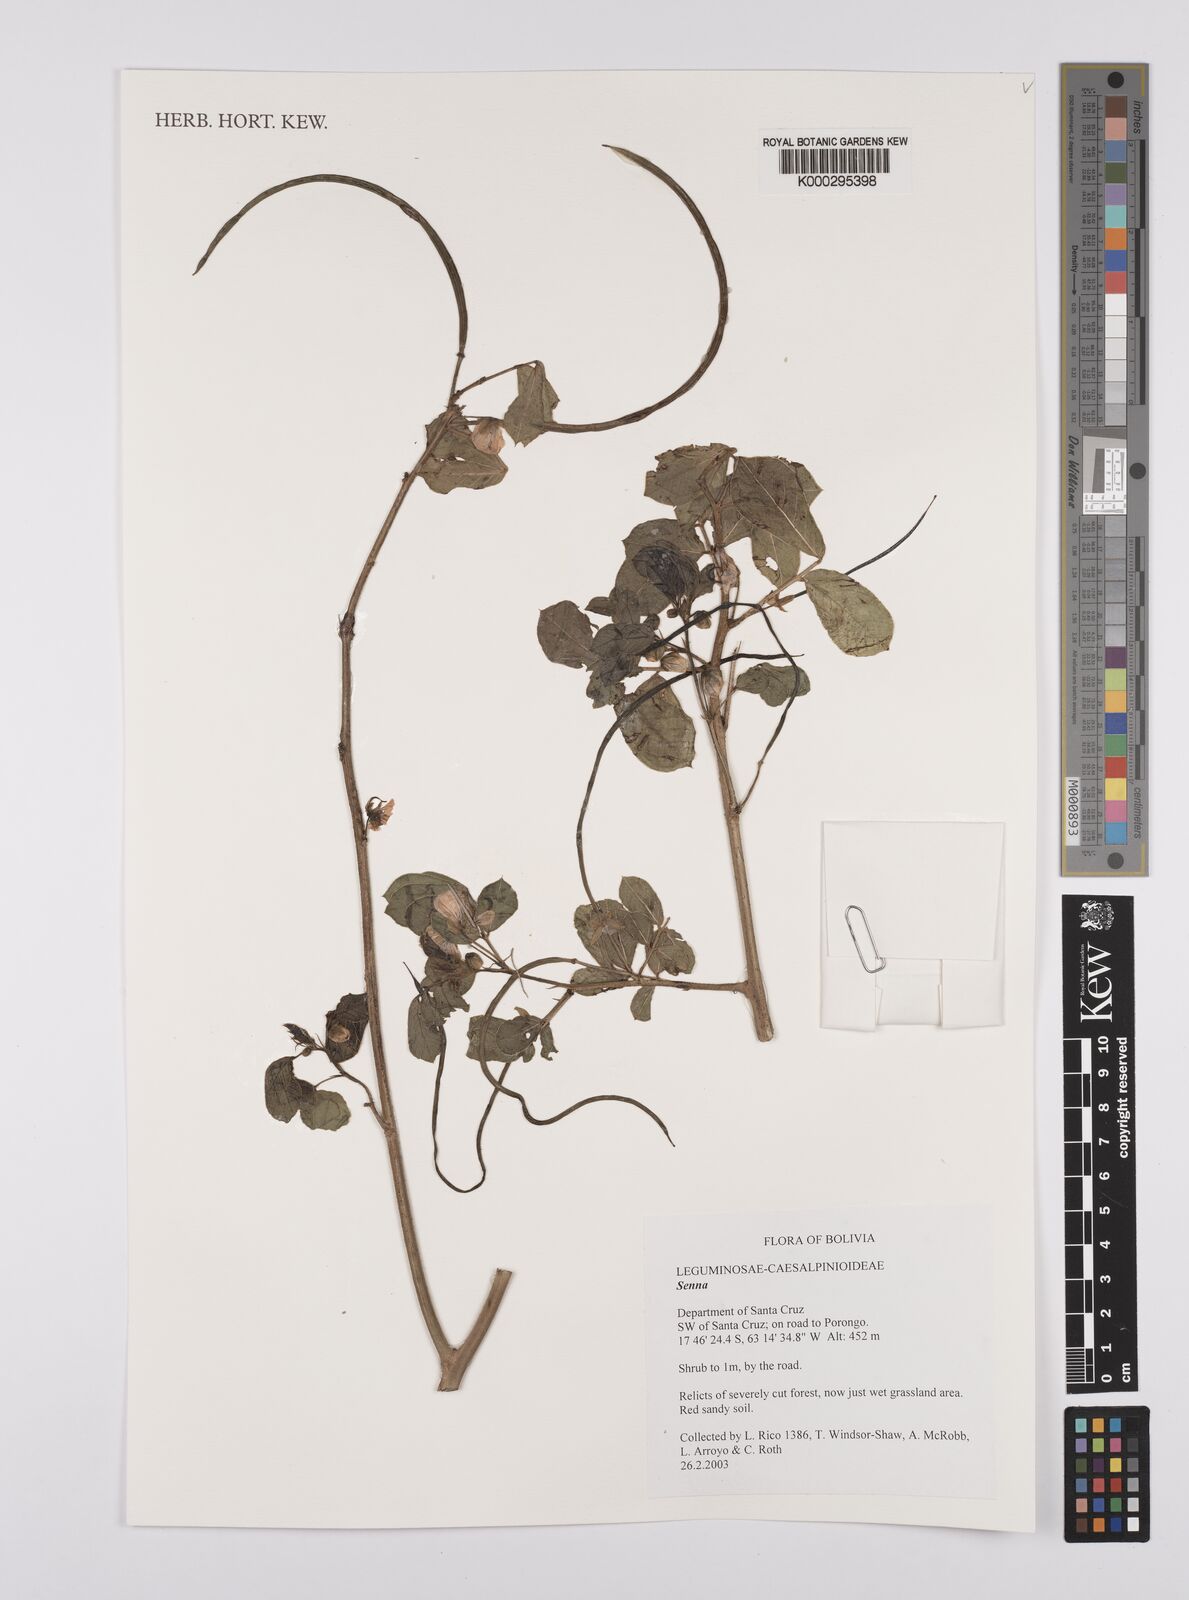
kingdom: Plantae
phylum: Tracheophyta
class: Magnoliopsida
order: Fabales
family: Fabaceae
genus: Senna
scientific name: Senna obtusifolia
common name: Java-bean
